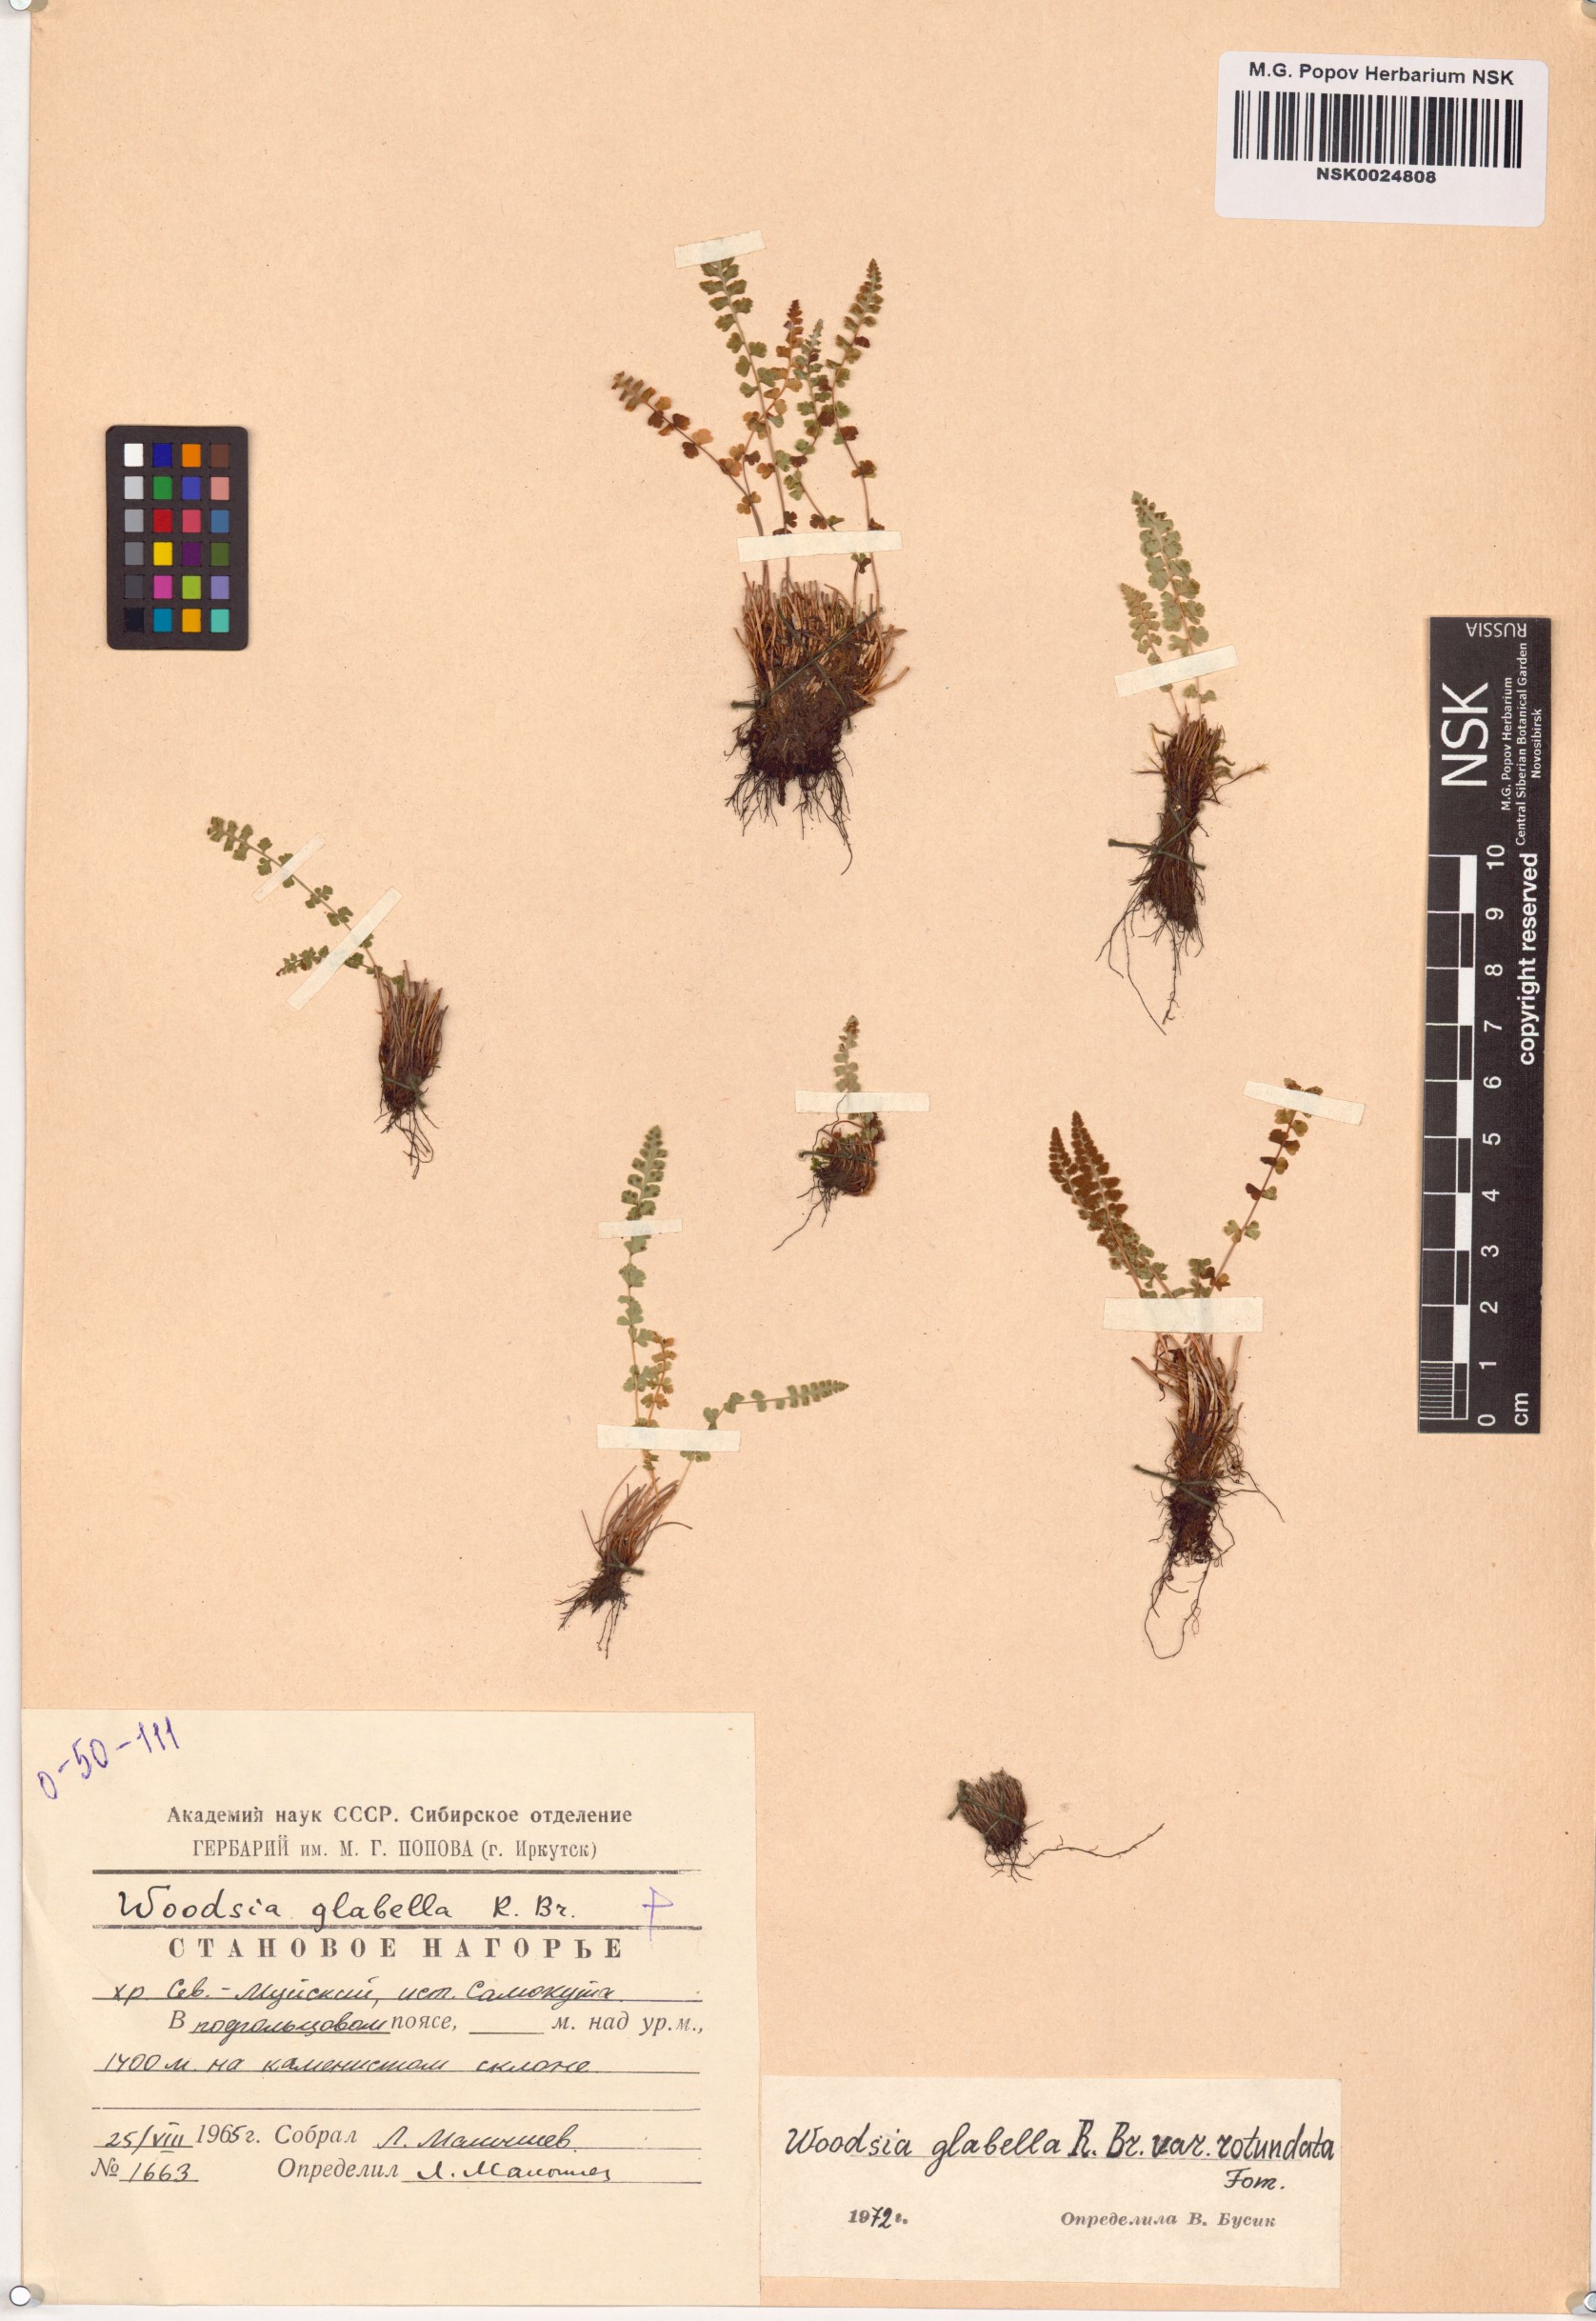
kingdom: Plantae
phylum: Tracheophyta
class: Polypodiopsida
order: Polypodiales
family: Woodsiaceae
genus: Woodsia
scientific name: Woodsia glabella
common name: Smooth woodsia
